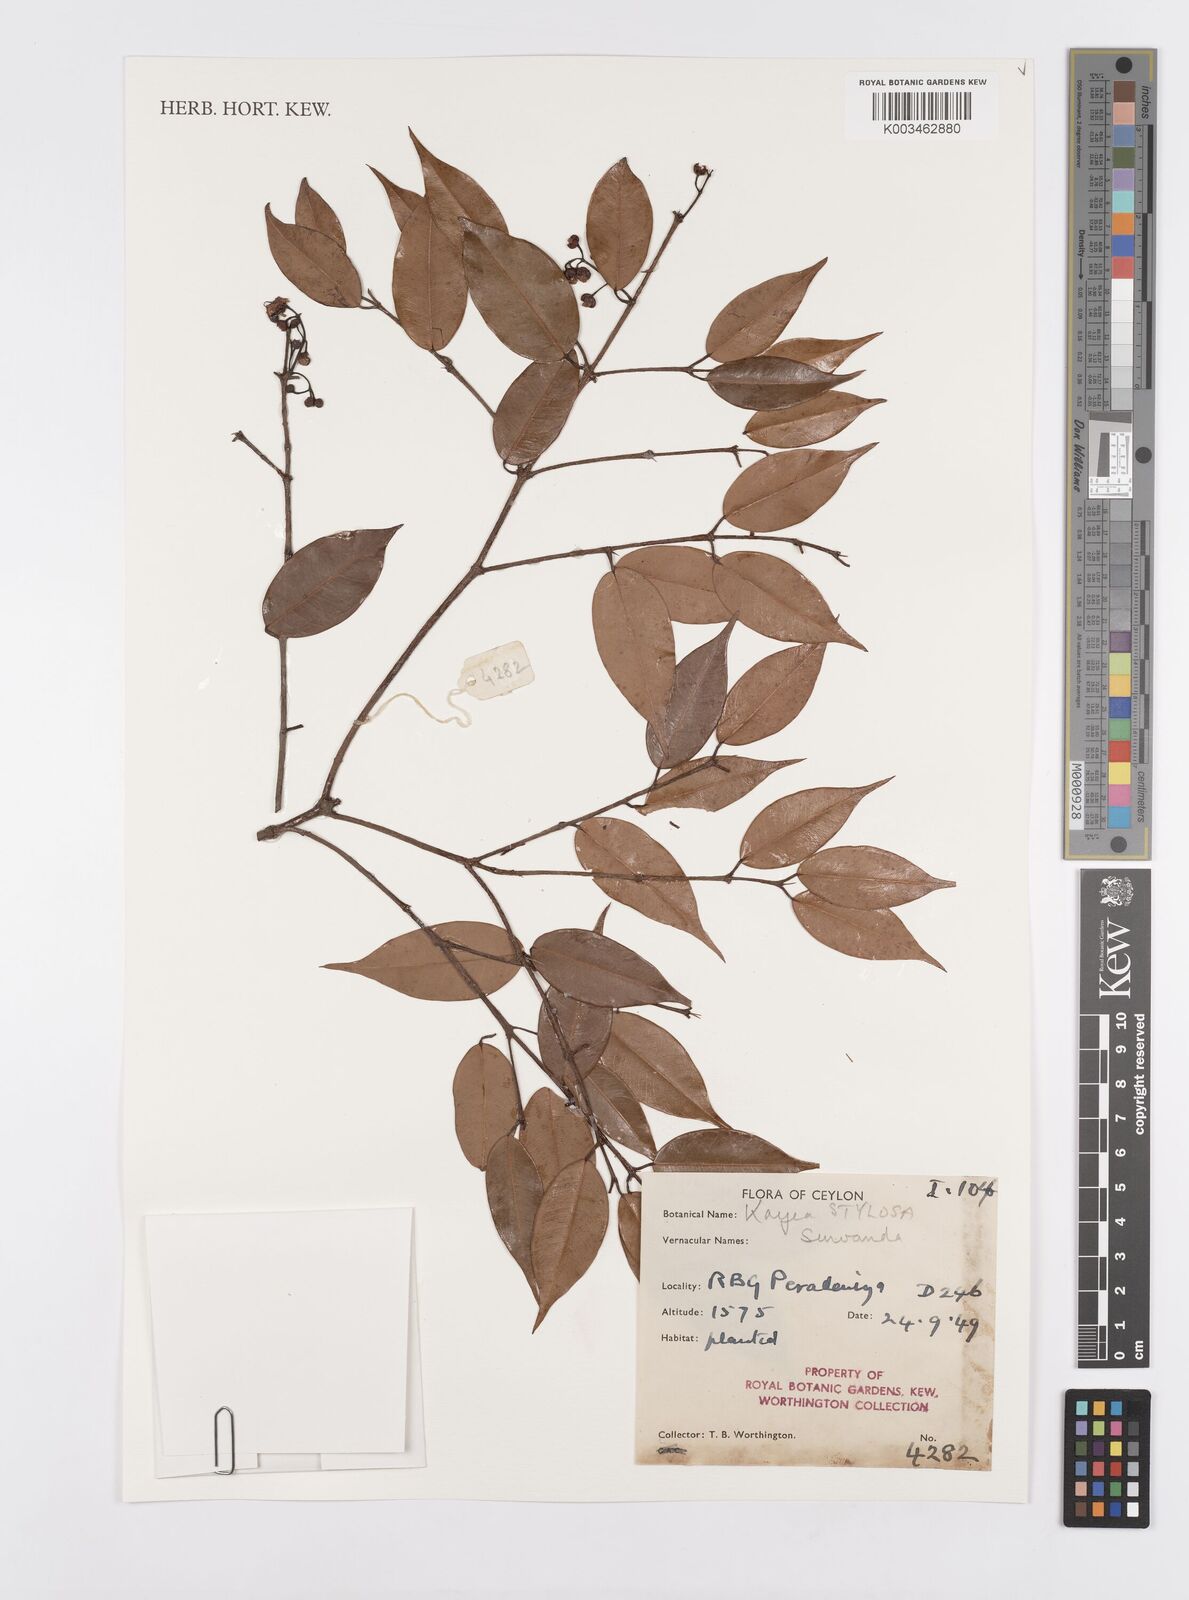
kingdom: Plantae
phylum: Tracheophyta
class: Magnoliopsida
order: Malpighiales
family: Calophyllaceae
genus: Kayea
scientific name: Kayea stylosa
